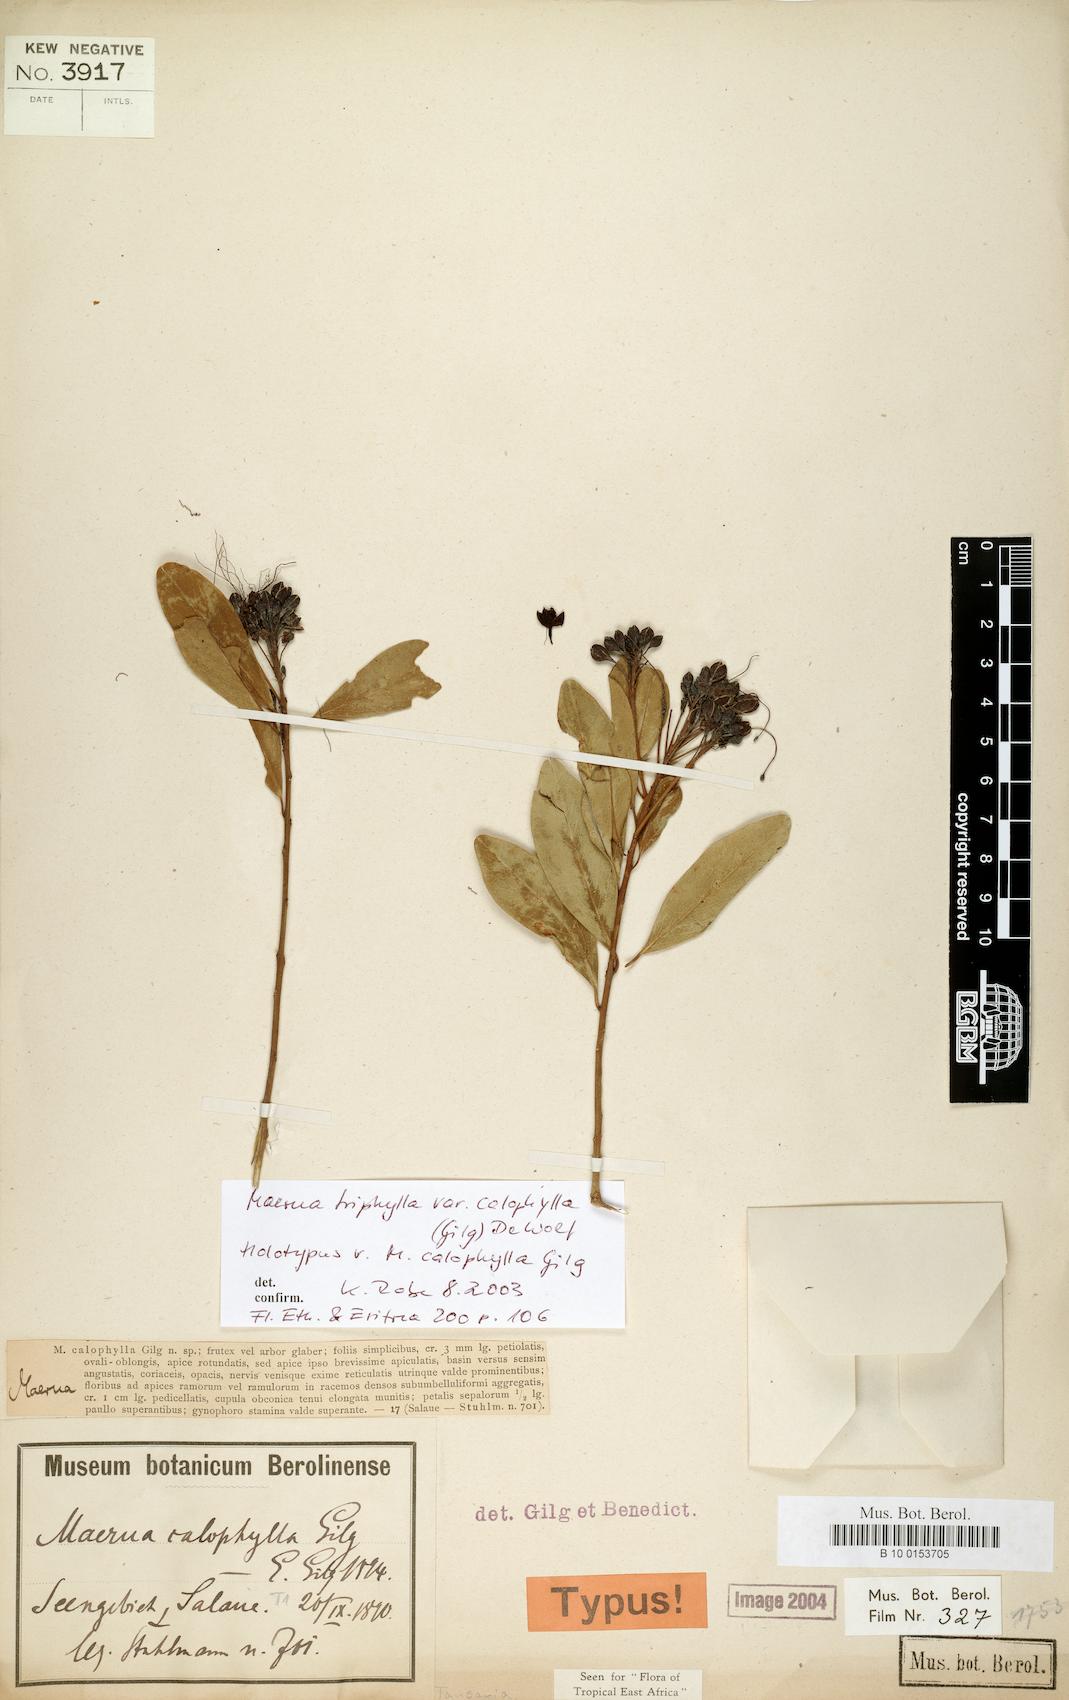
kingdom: Plantae
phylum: Tracheophyta
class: Magnoliopsida
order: Brassicales
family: Capparaceae
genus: Maerua
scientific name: Maerua triphylla
